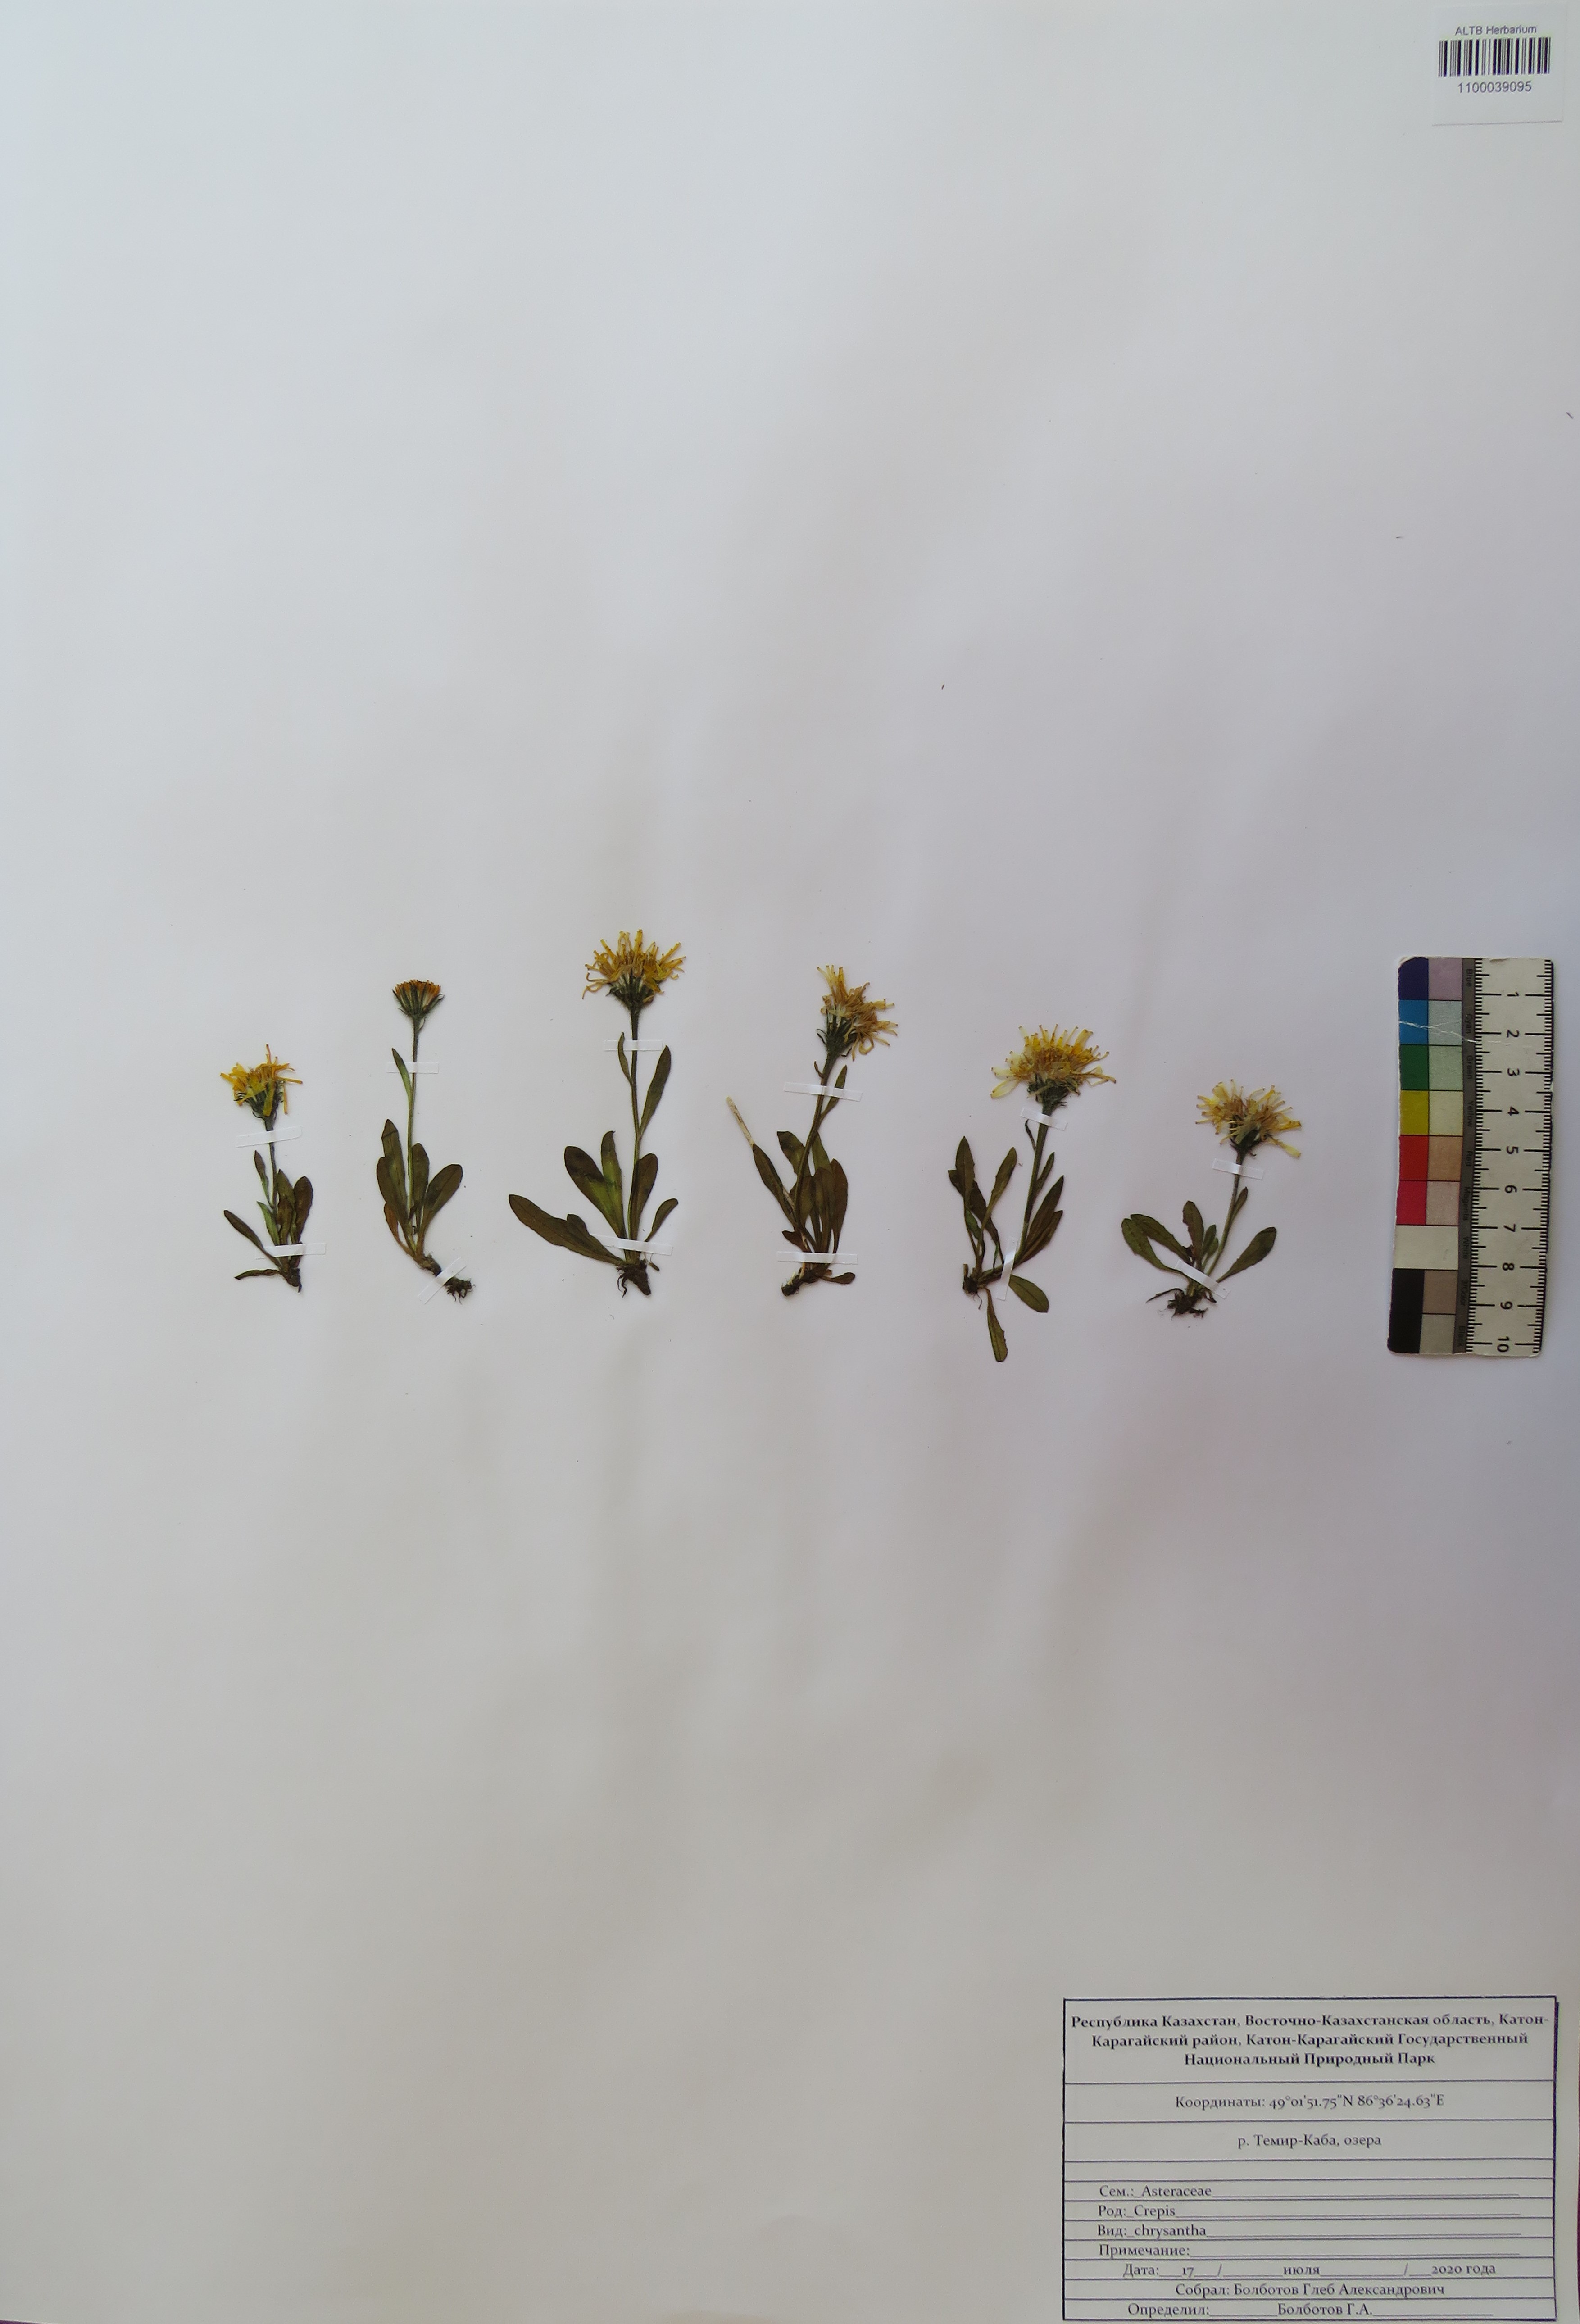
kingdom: Plantae
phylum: Tracheophyta
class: Magnoliopsida
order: Asterales
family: Asteraceae
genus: Crepis
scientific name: Crepis chrysantha
